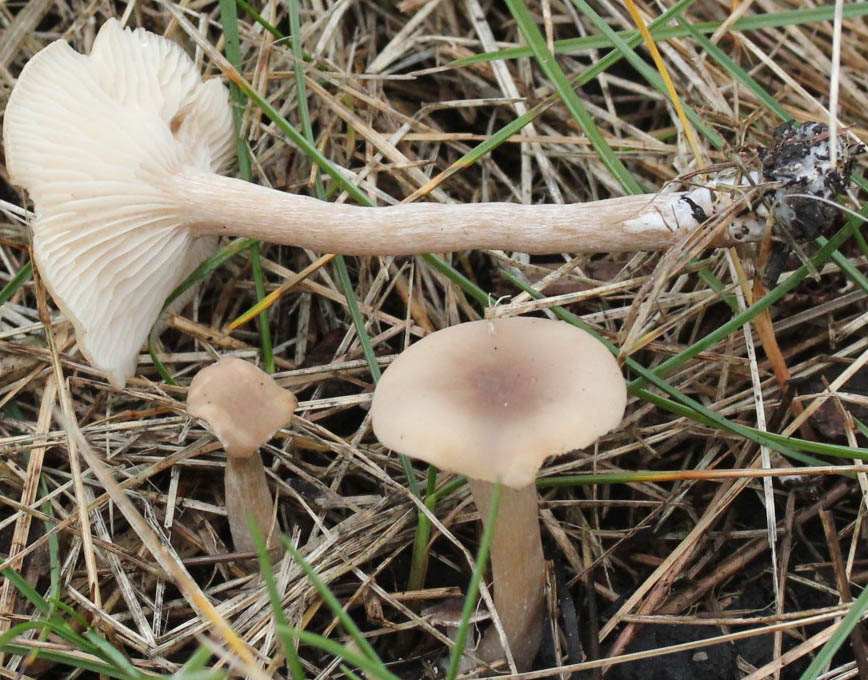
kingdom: Fungi
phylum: Basidiomycota
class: Agaricomycetes
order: Agaricales
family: Tricholomataceae
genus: Clitocybe
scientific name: Clitocybe fragrans
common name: vellugtende tragthat
